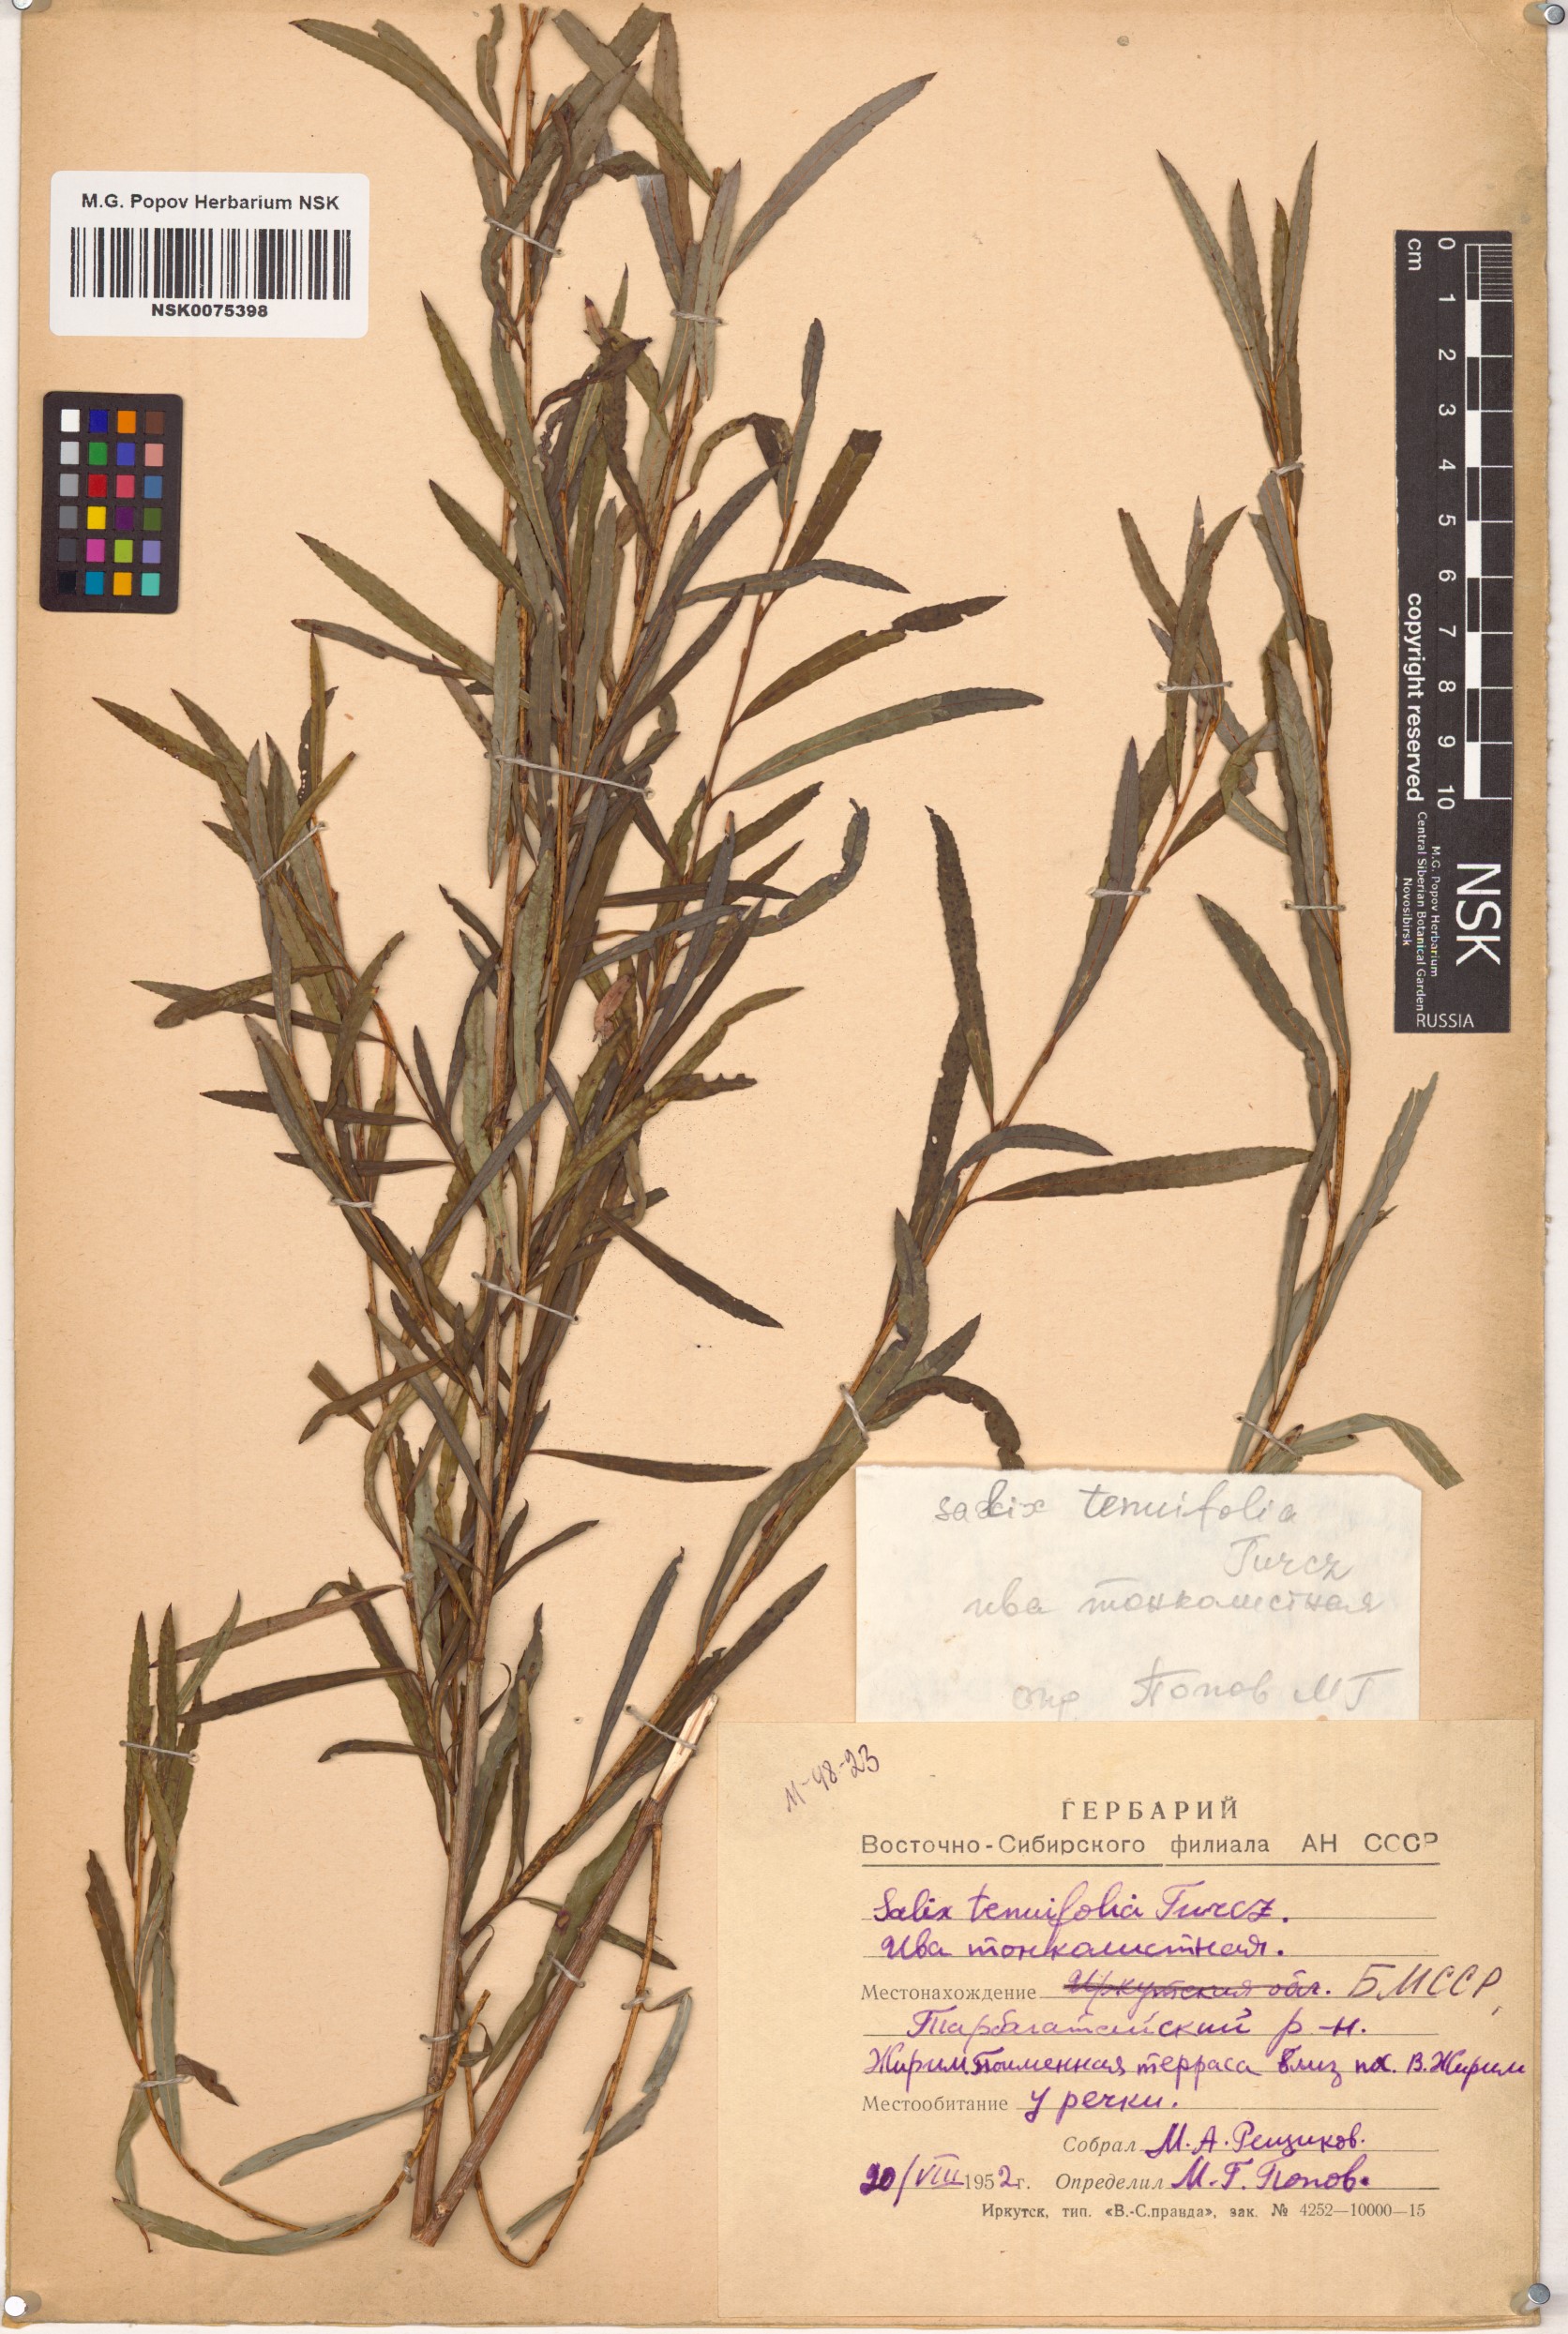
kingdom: Plantae
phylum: Tracheophyta
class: Magnoliopsida
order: Malpighiales
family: Salicaceae
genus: Salix
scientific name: Salix
